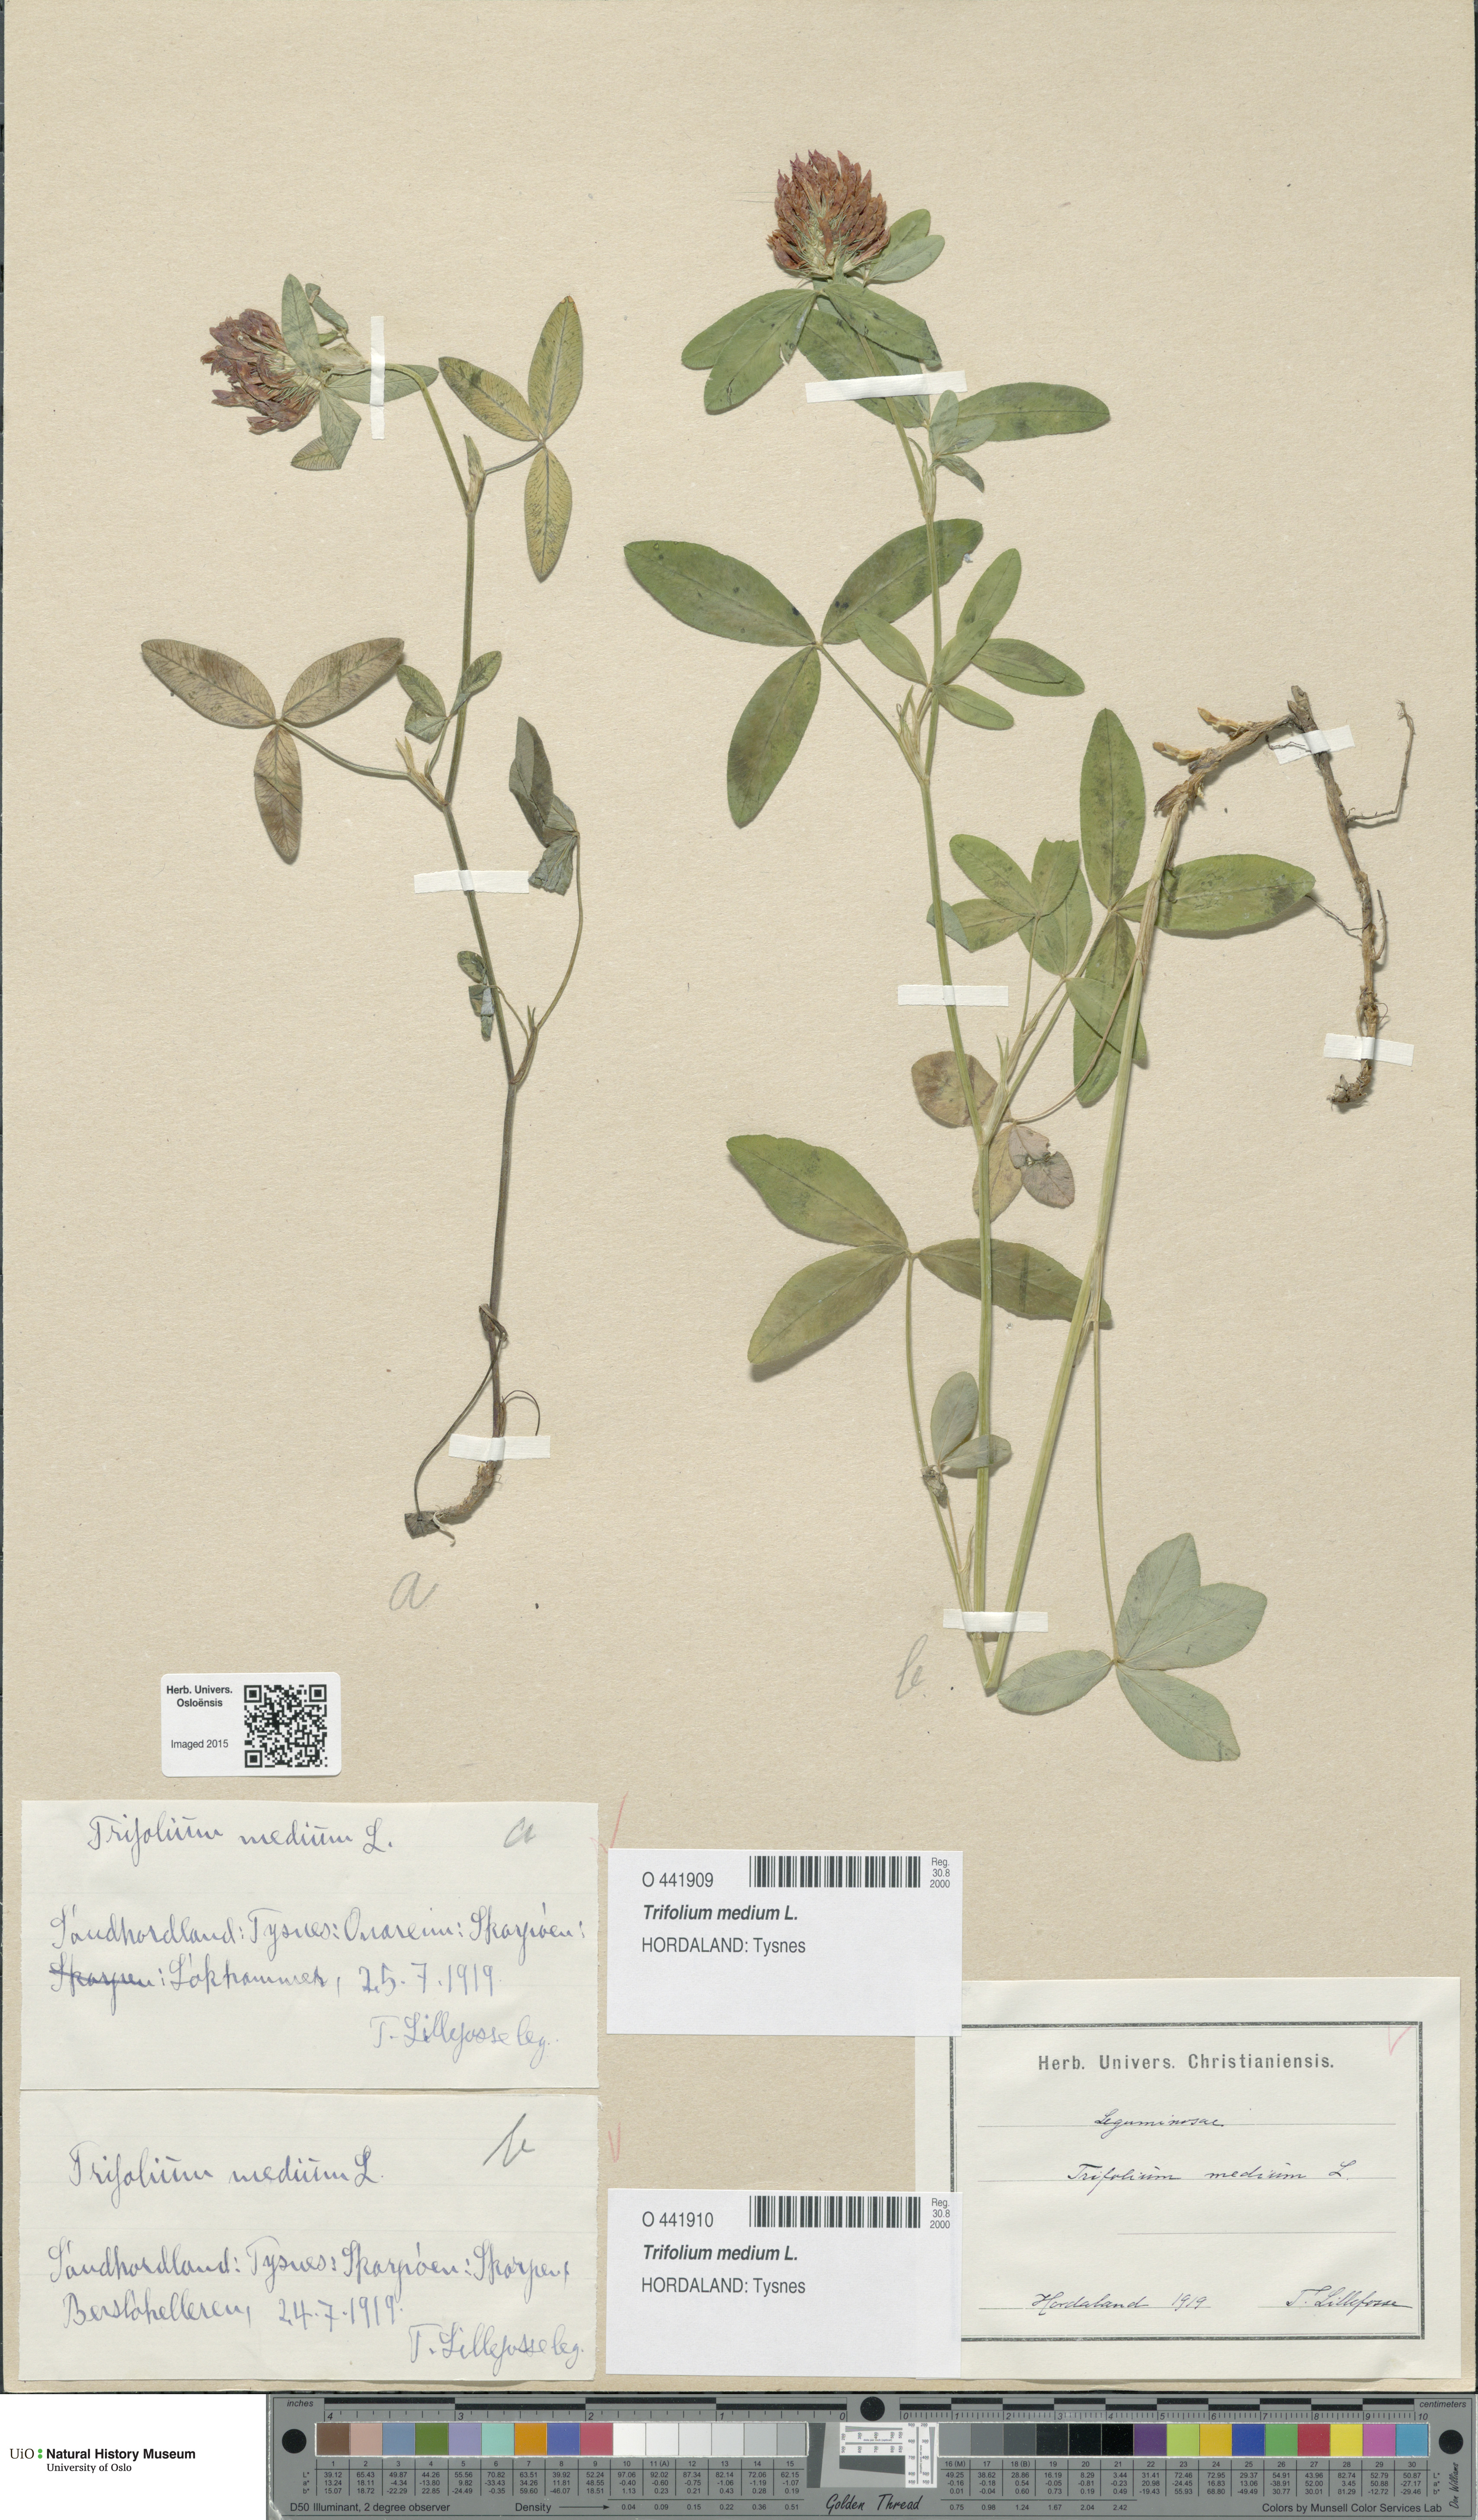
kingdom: Plantae
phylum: Tracheophyta
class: Magnoliopsida
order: Fabales
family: Fabaceae
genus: Trifolium
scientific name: Trifolium medium
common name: Zigzag clover
